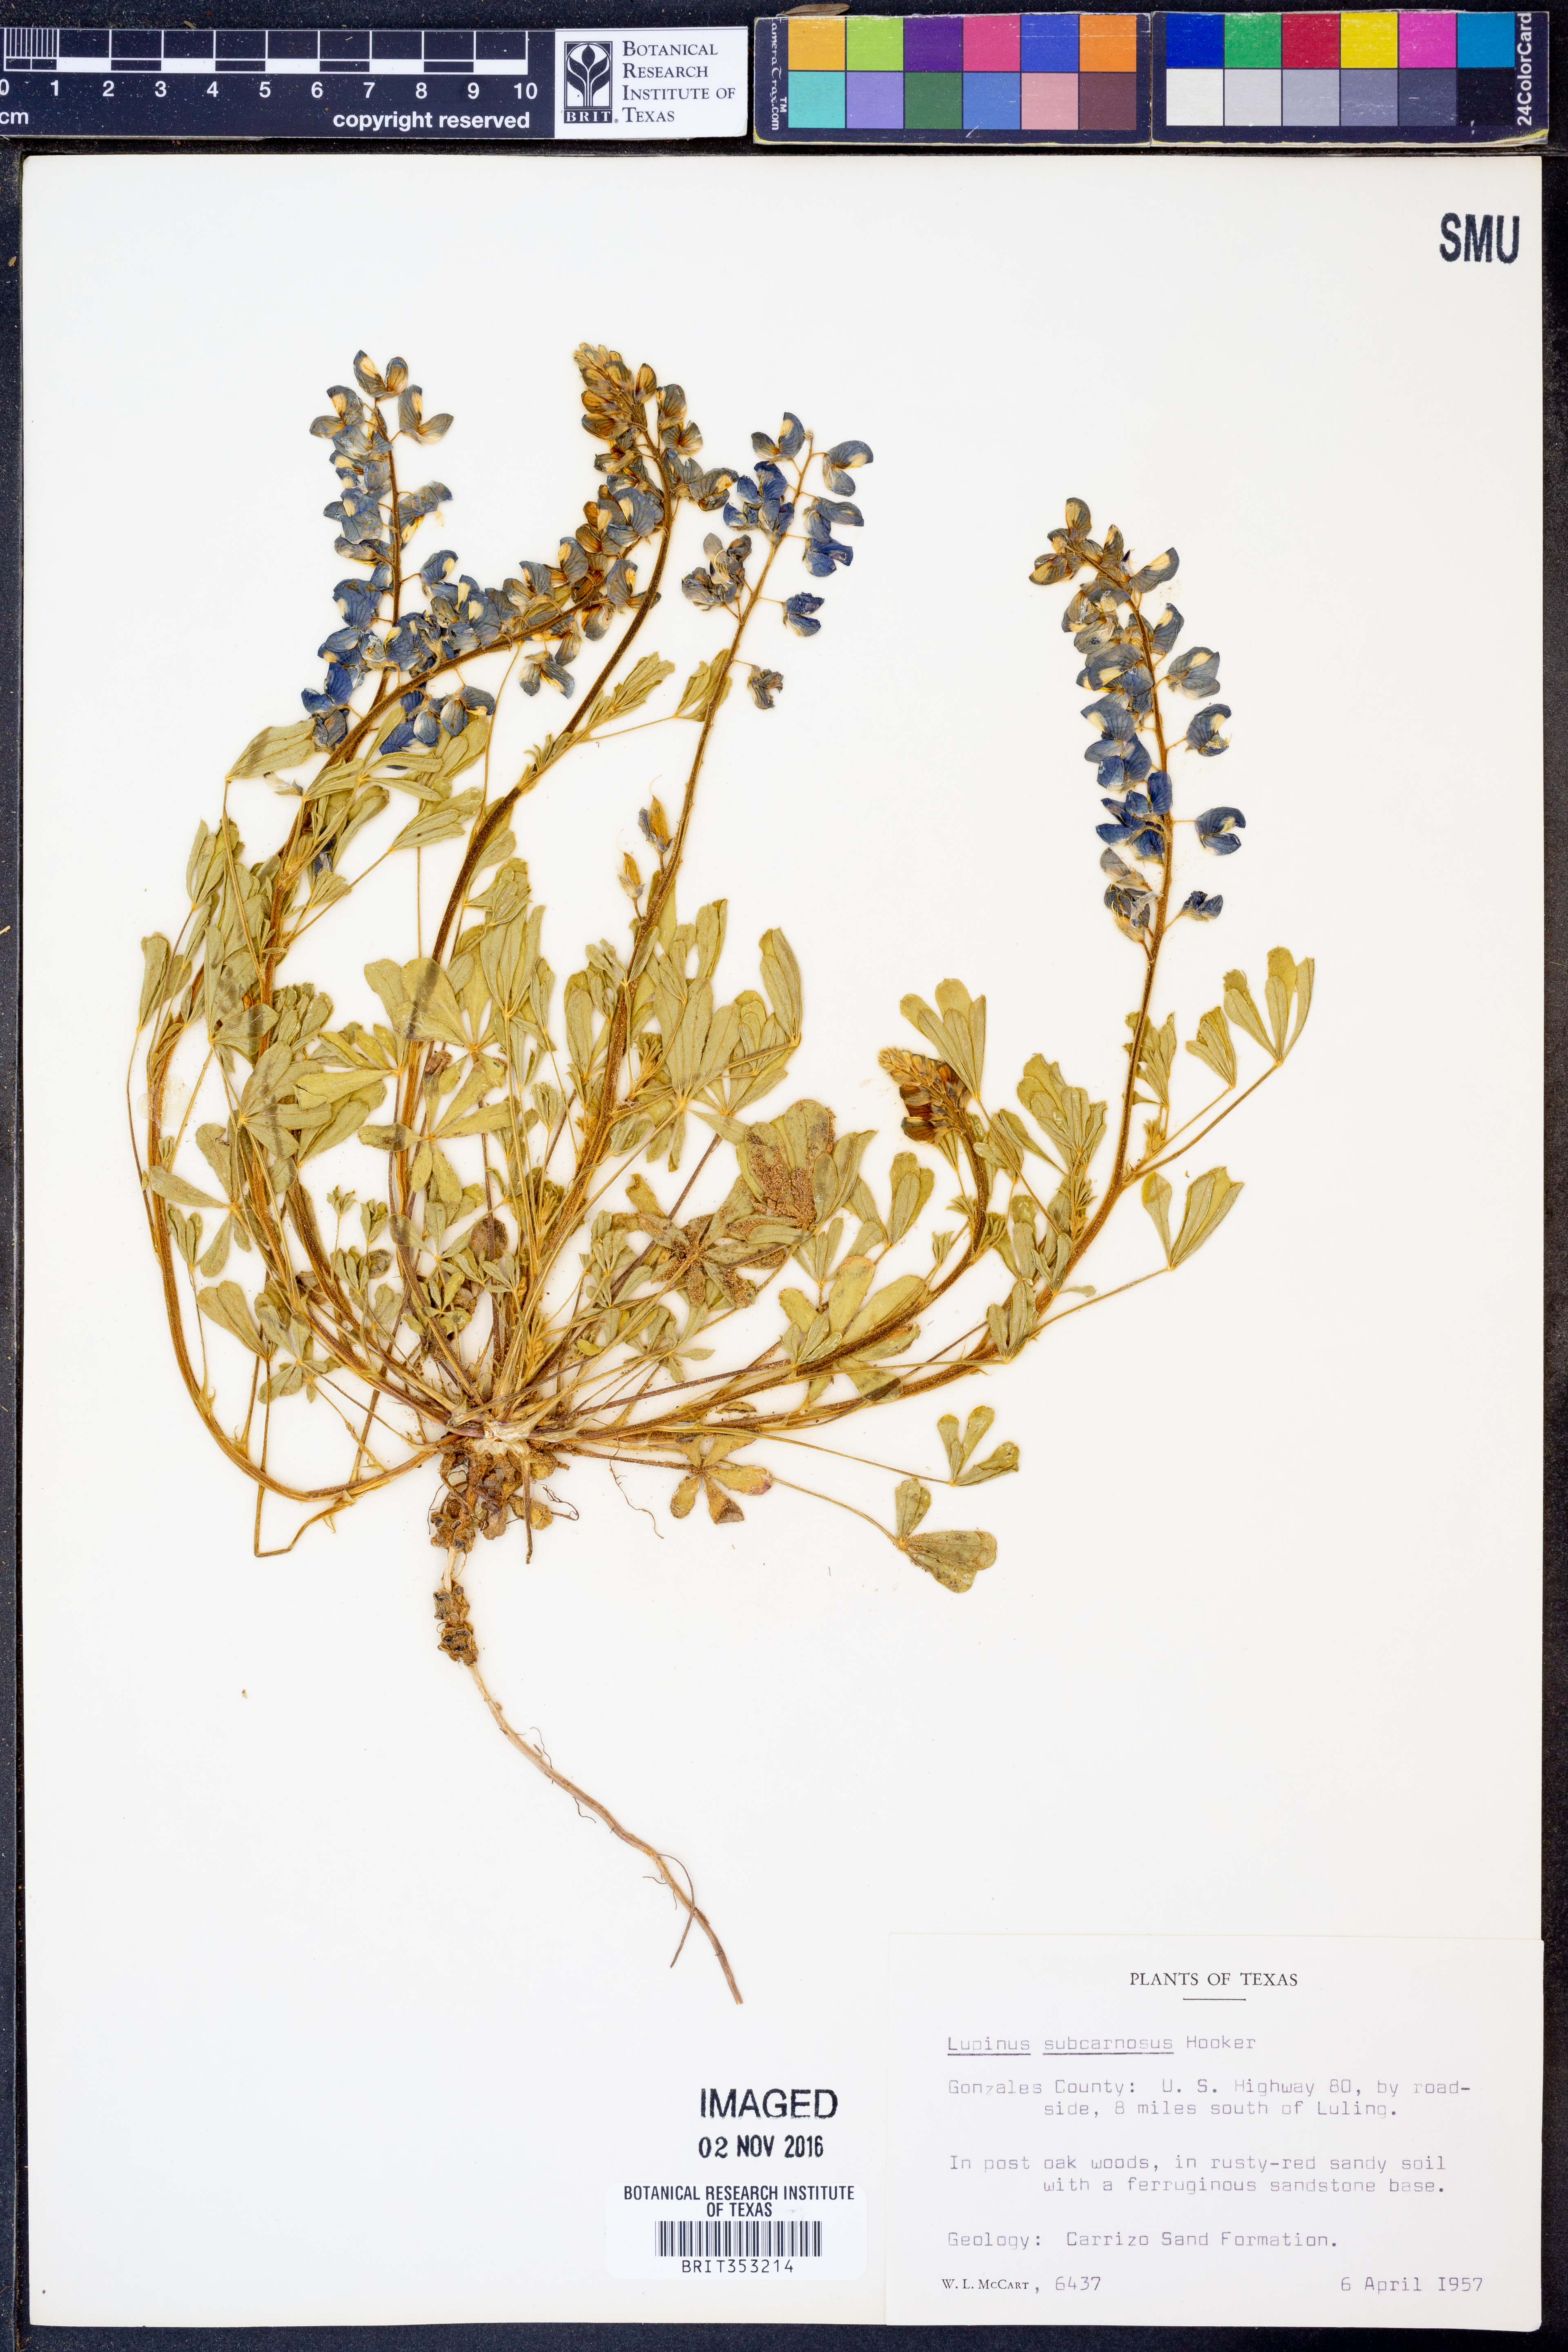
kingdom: Plantae
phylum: Tracheophyta
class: Magnoliopsida
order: Fabales
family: Fabaceae
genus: Lupinus
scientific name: Lupinus subcarnosus
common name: Texas bluebonnet
